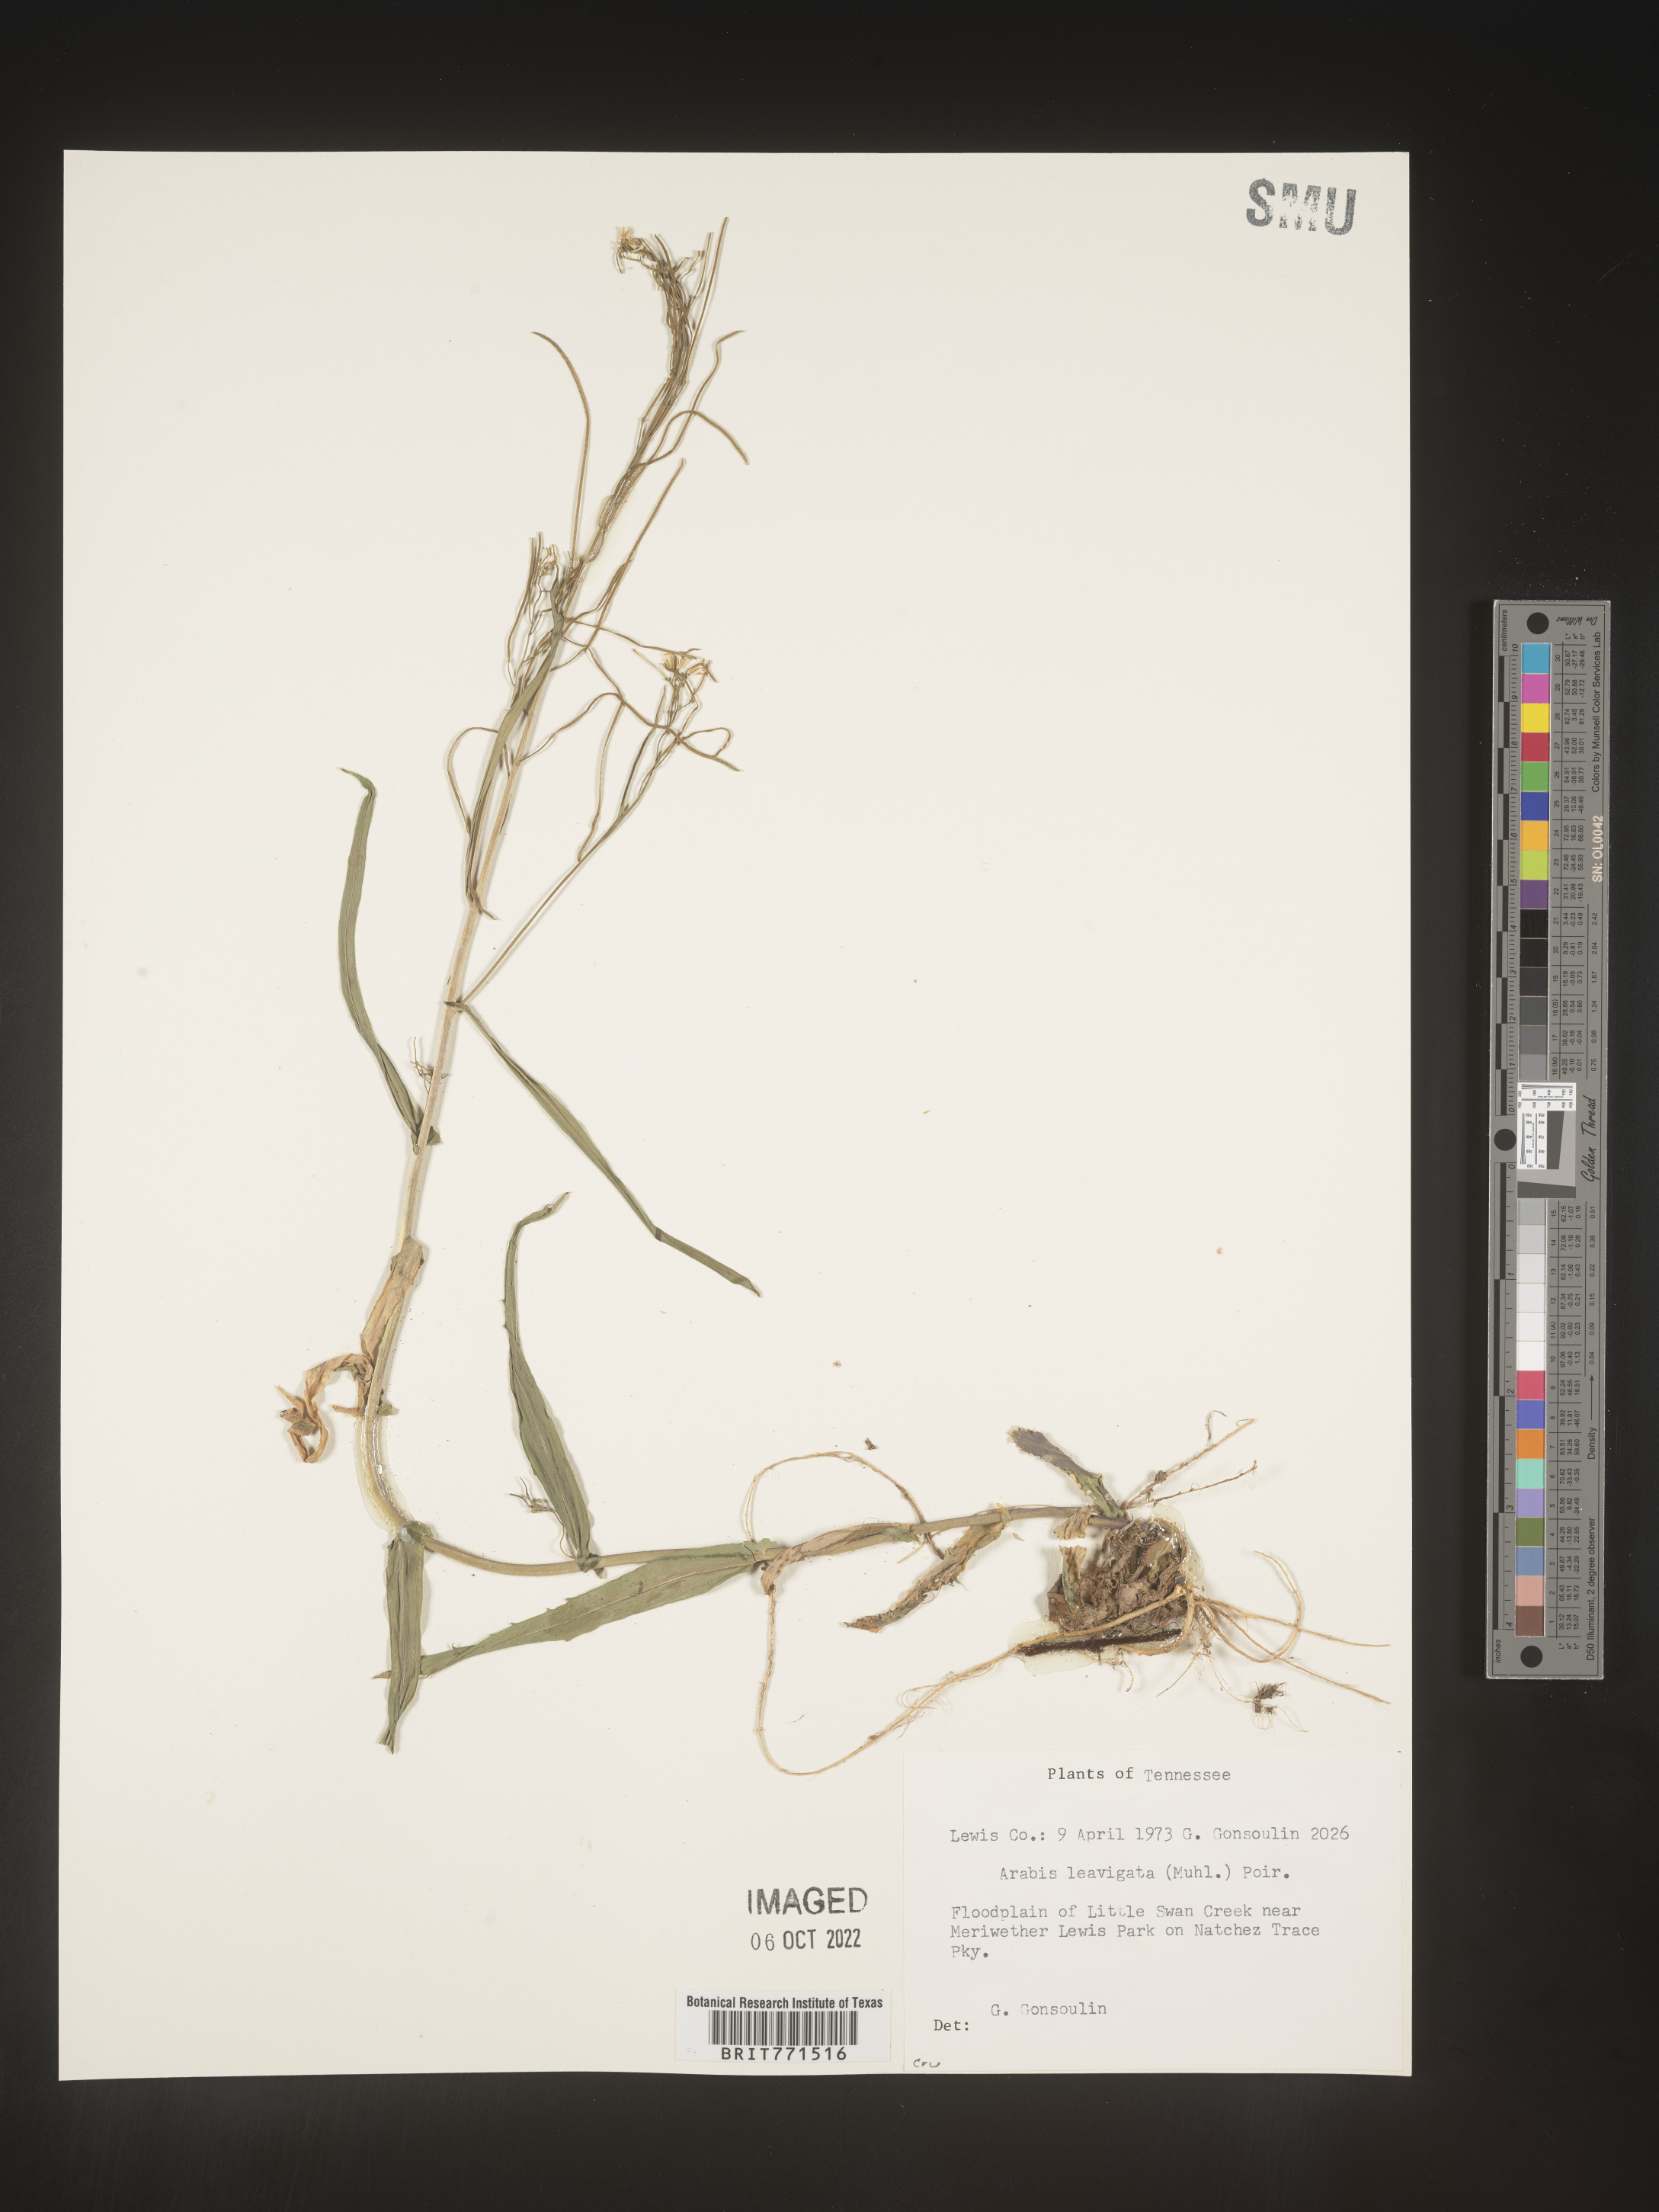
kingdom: Plantae
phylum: Tracheophyta
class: Magnoliopsida
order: Brassicales
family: Brassicaceae
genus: Arabis
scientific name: Arabis laevigata
